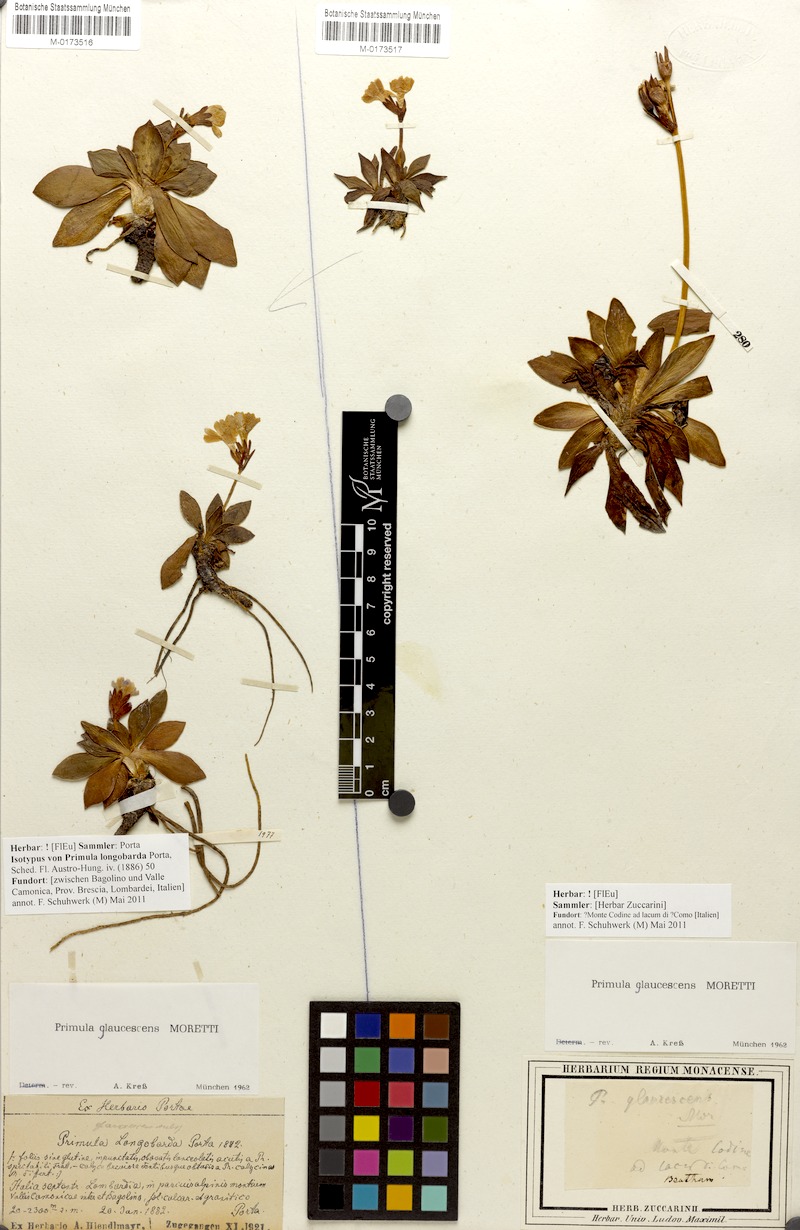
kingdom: Plantae
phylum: Tracheophyta
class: Magnoliopsida
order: Ericales
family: Primulaceae
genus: Primula
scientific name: Primula glaucescens
